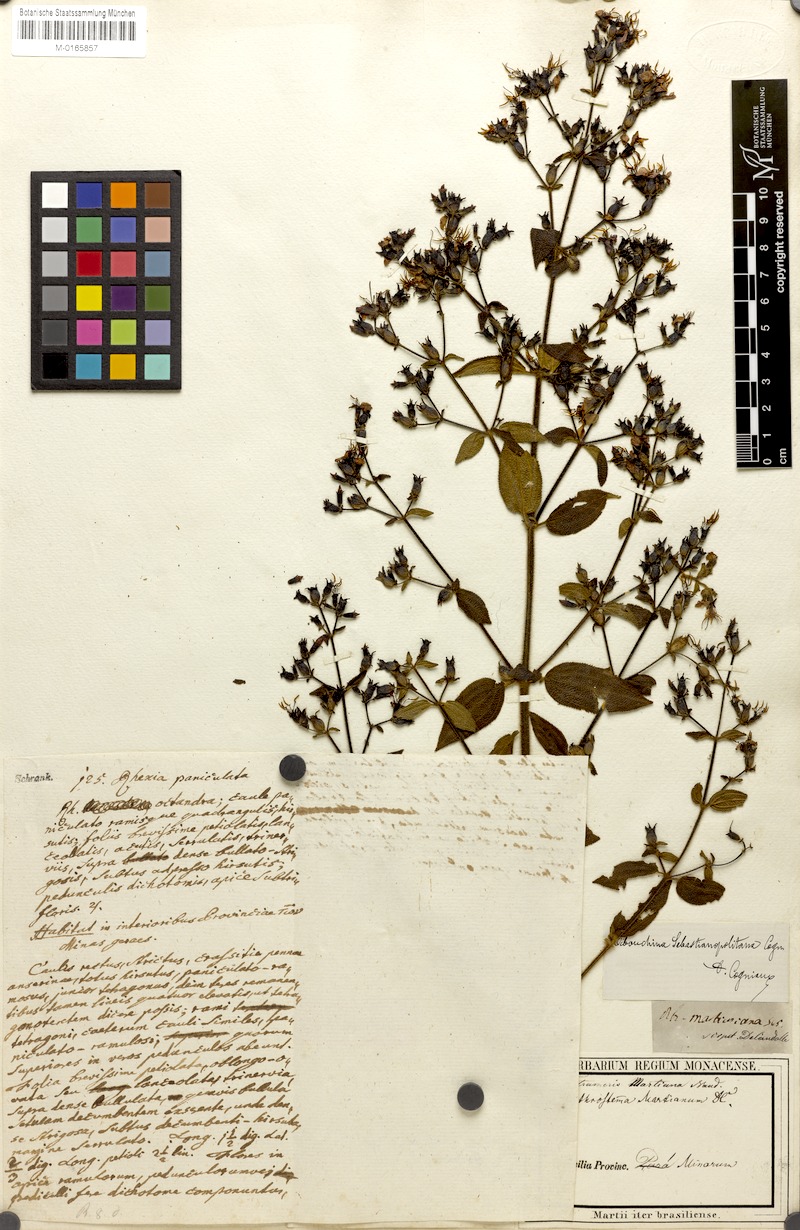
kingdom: Plantae
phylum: Tracheophyta
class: Magnoliopsida
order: Myrtales
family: Melastomataceae
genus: Chaetogastra
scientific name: Chaetogastra sebastianopolitana
